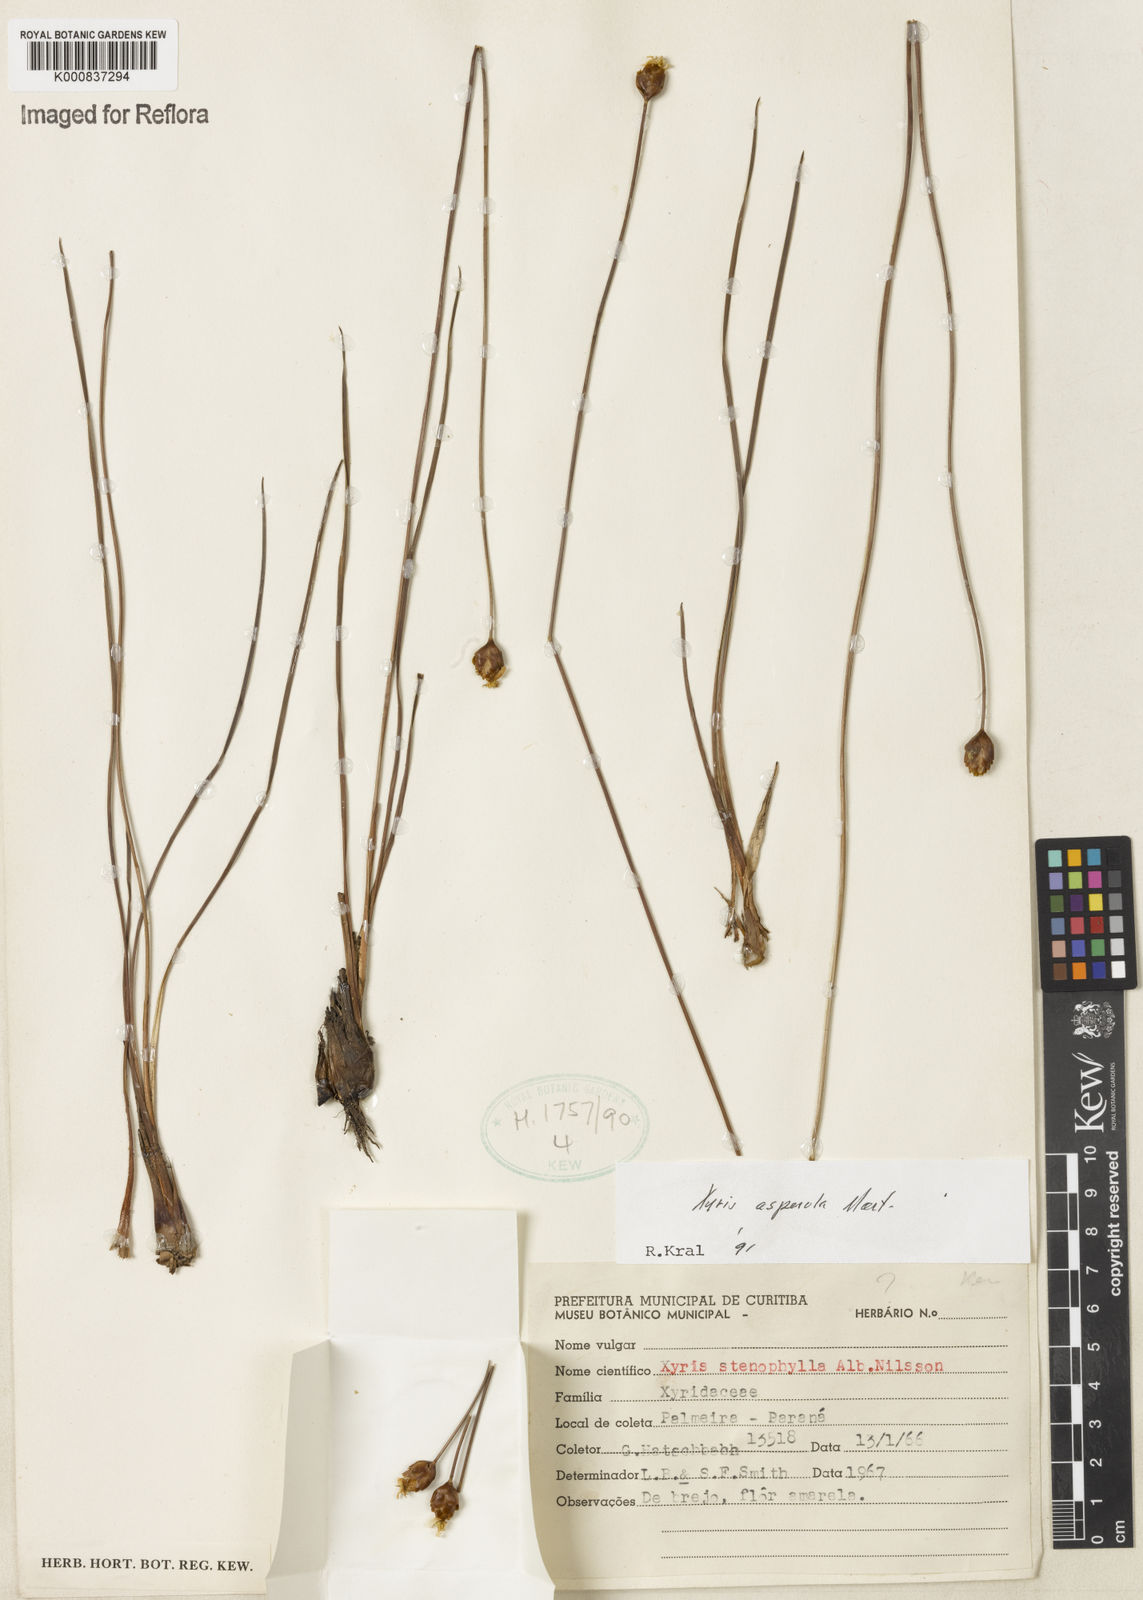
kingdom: Plantae
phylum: Tracheophyta
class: Liliopsida
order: Poales
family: Xyridaceae
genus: Xyris
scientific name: Xyris asperula
